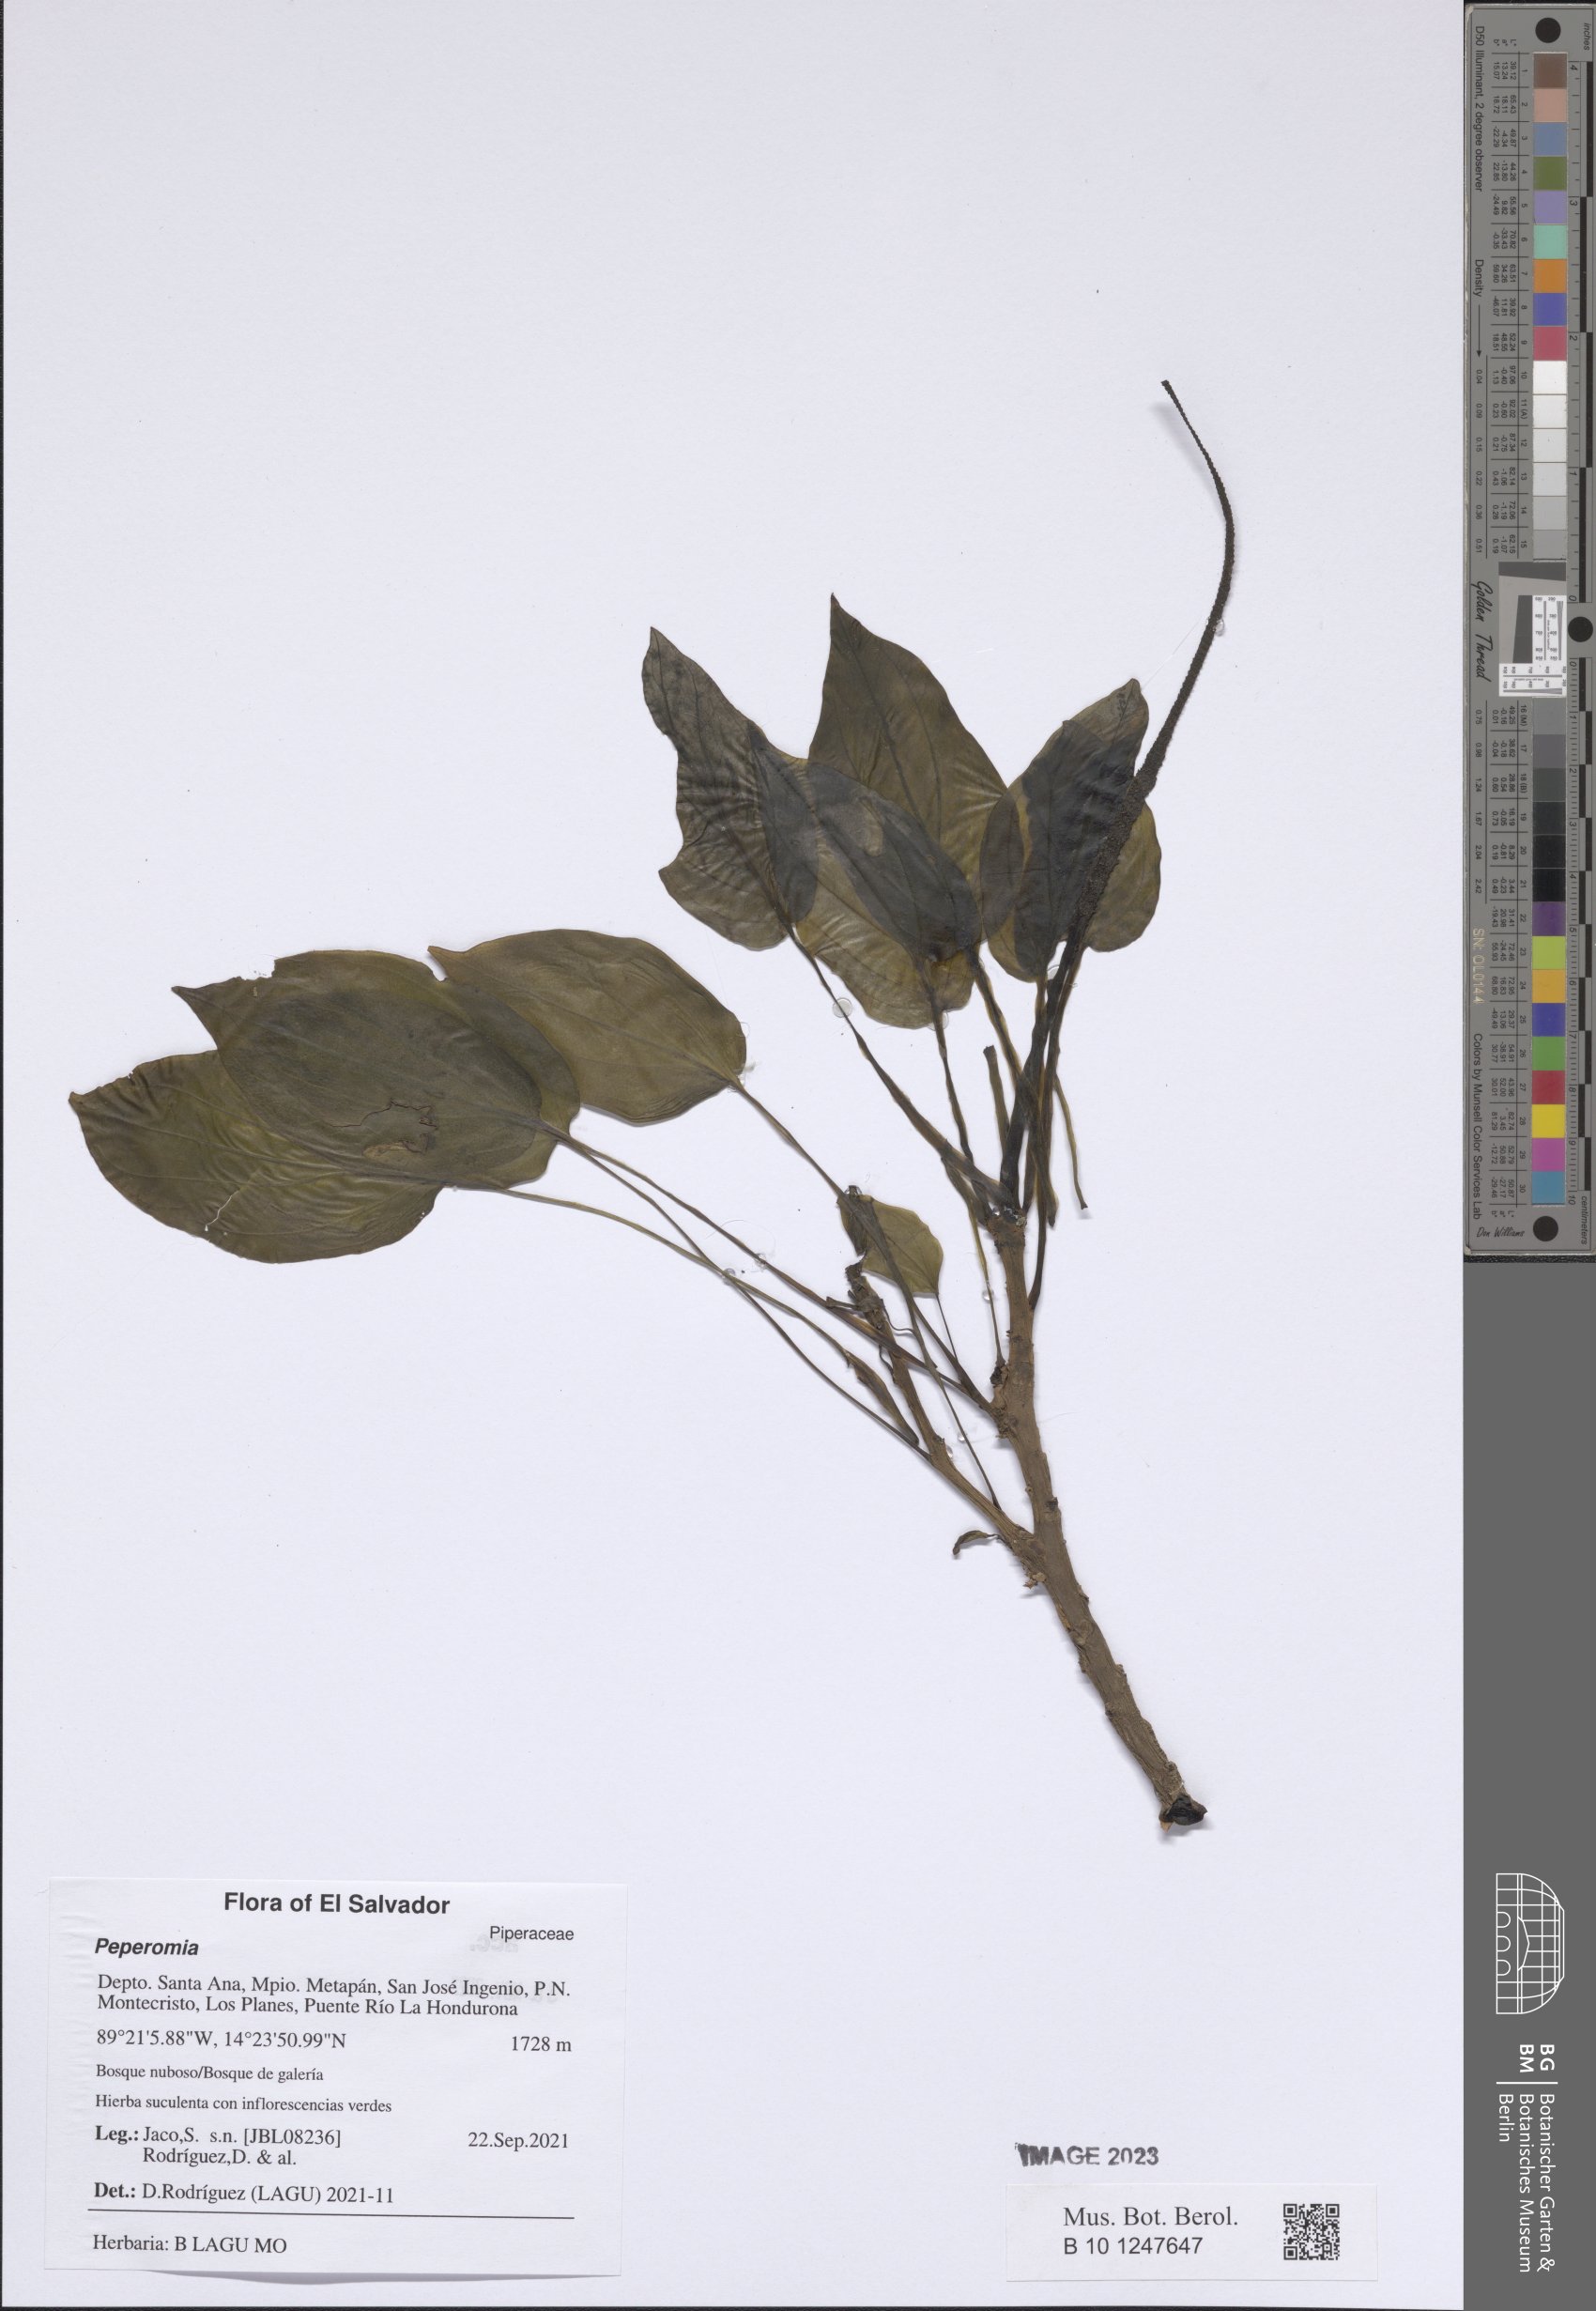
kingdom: Plantae
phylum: Tracheophyta
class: Magnoliopsida
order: Piperales
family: Piperaceae
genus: Peperomia
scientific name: Peperomia
